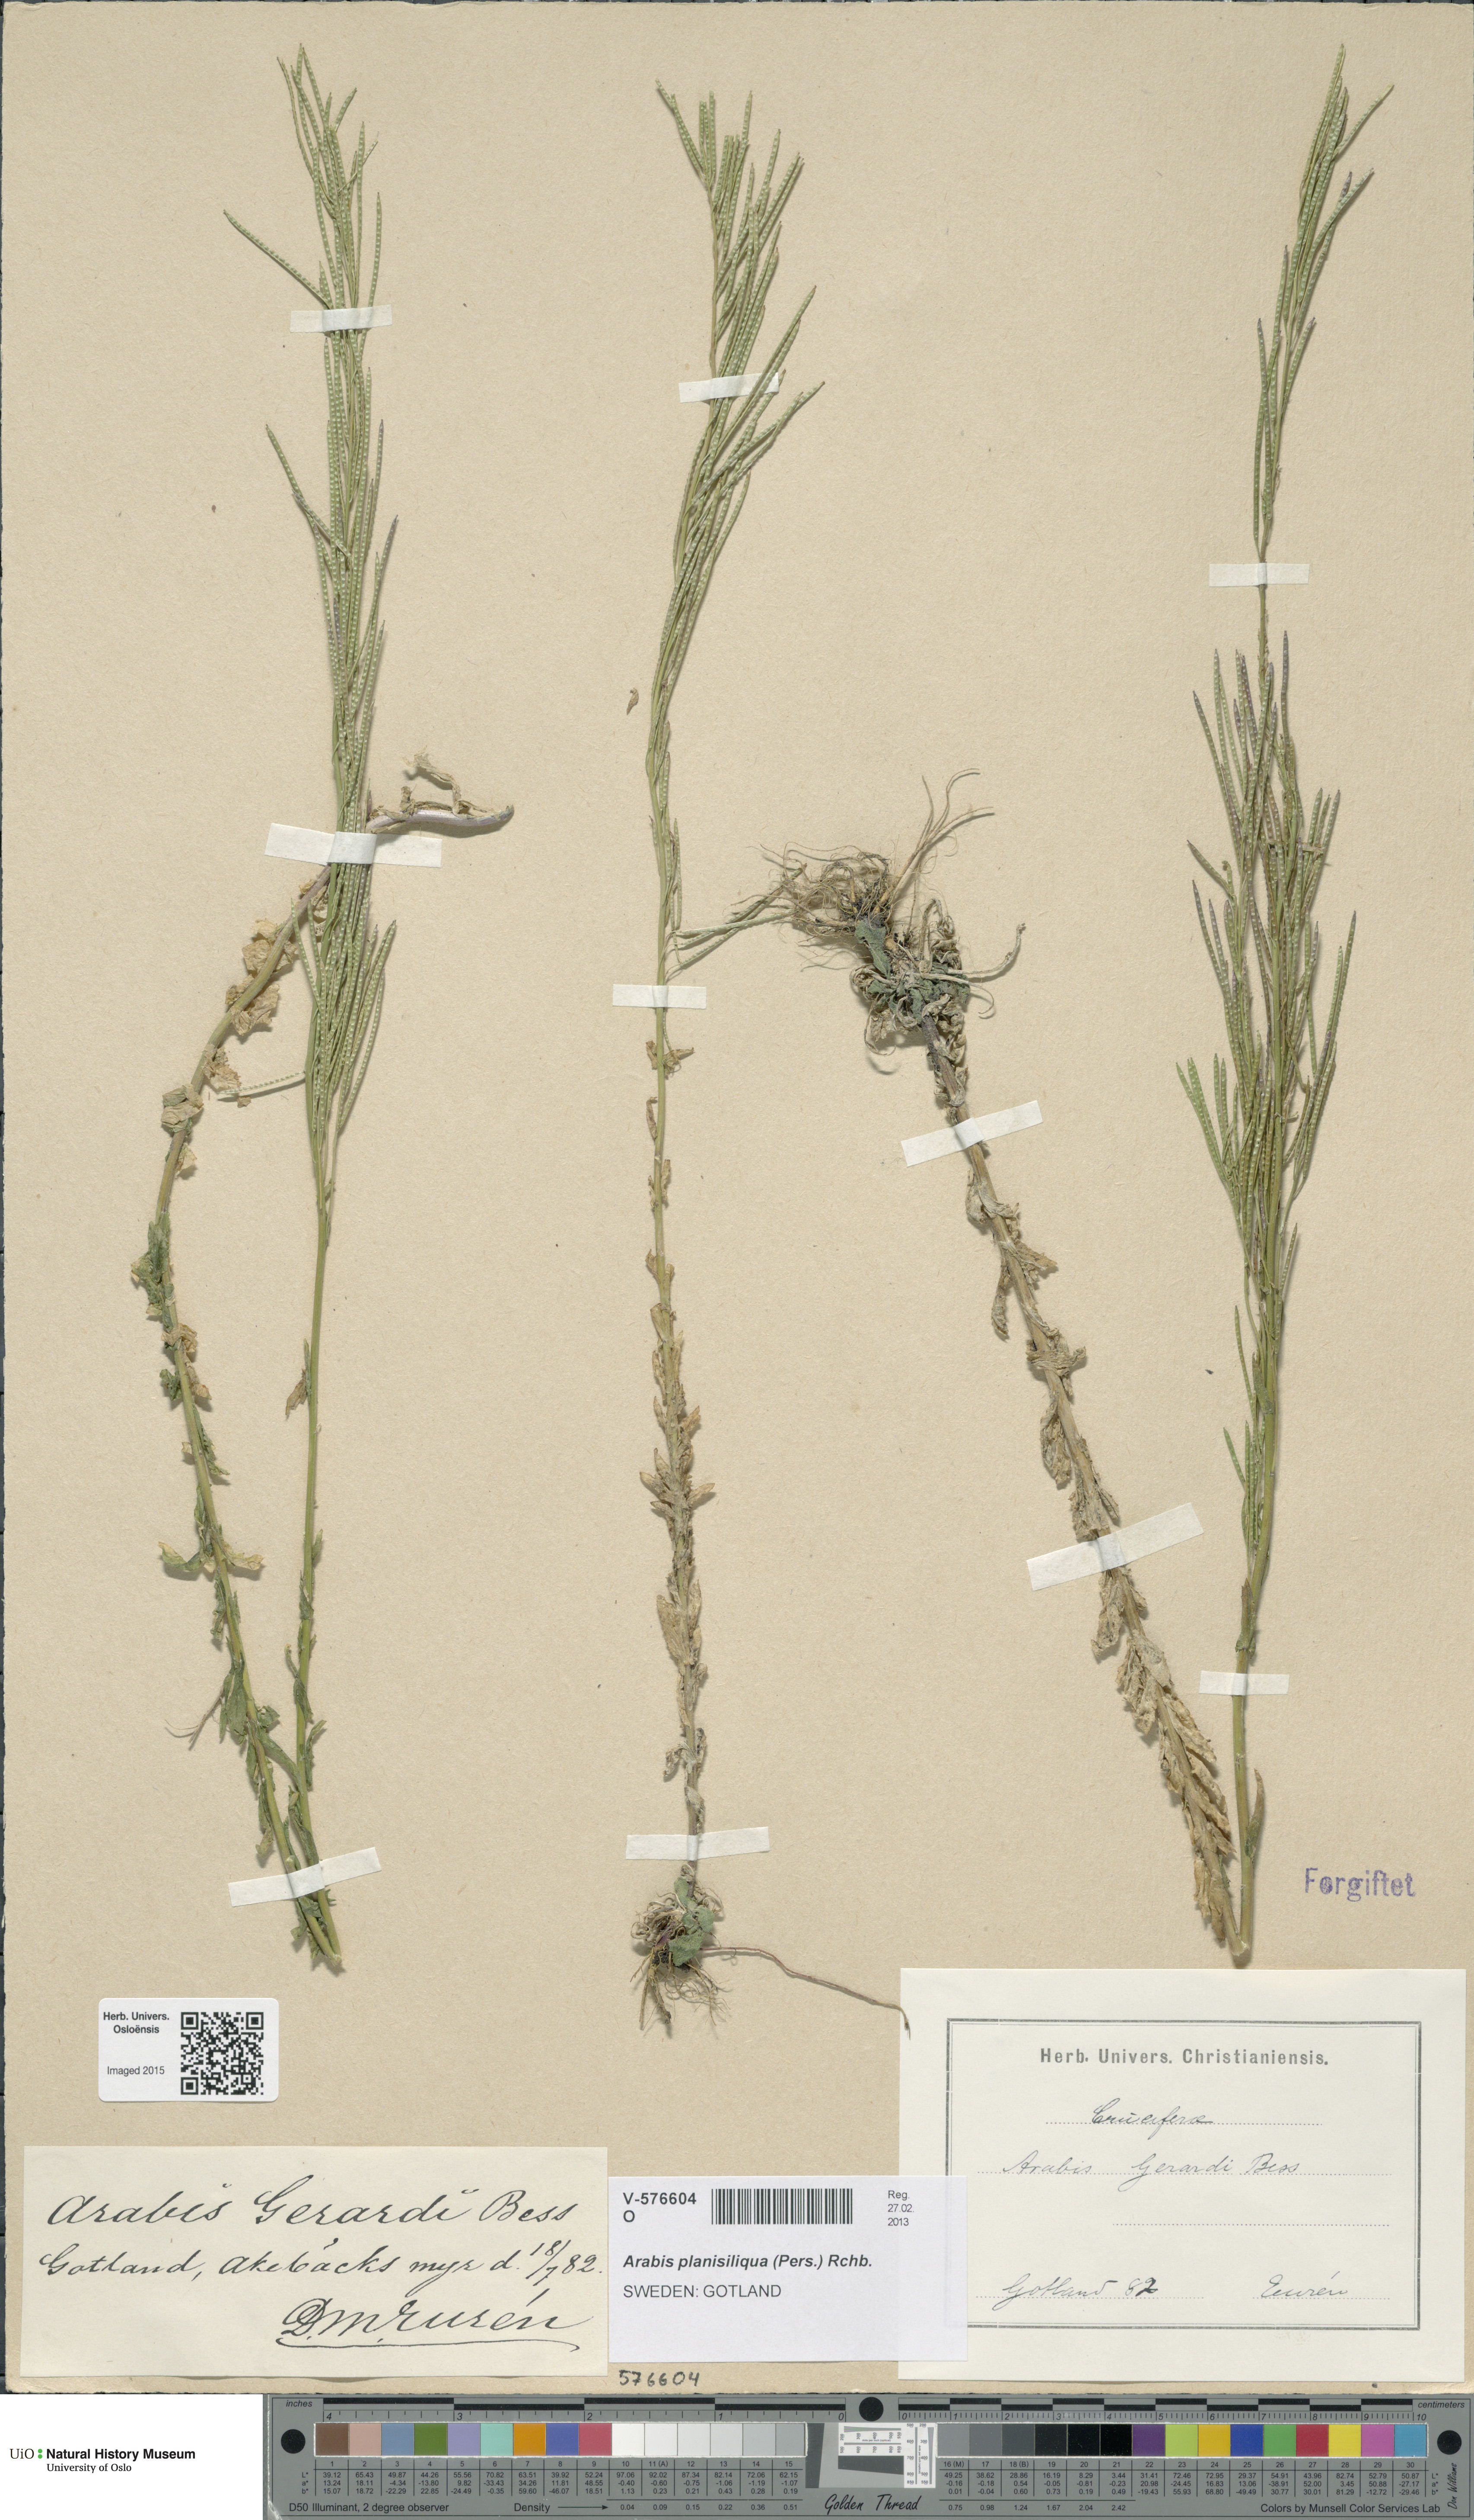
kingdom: Plantae
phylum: Tracheophyta
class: Magnoliopsida
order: Brassicales
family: Brassicaceae
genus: Arabis
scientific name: Arabis planisiliqua
